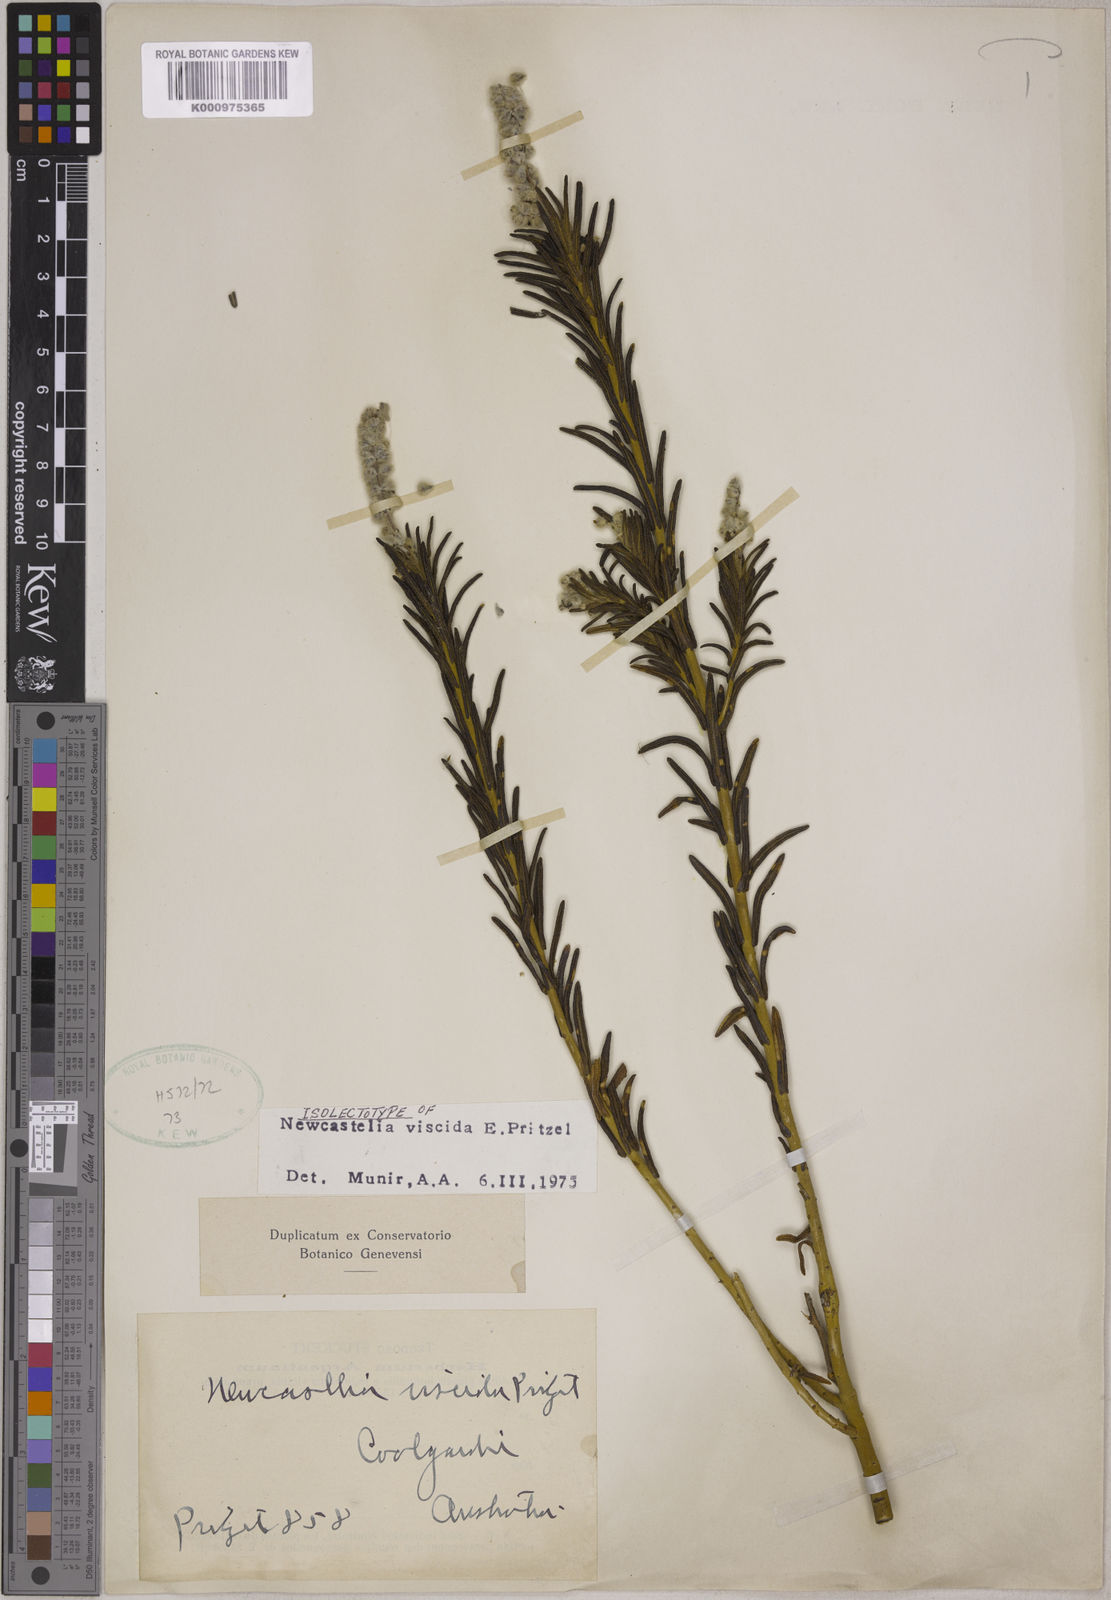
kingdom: Plantae
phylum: Tracheophyta
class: Magnoliopsida
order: Lamiales
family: Lamiaceae
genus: Apatelantha
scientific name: Apatelantha viscida
